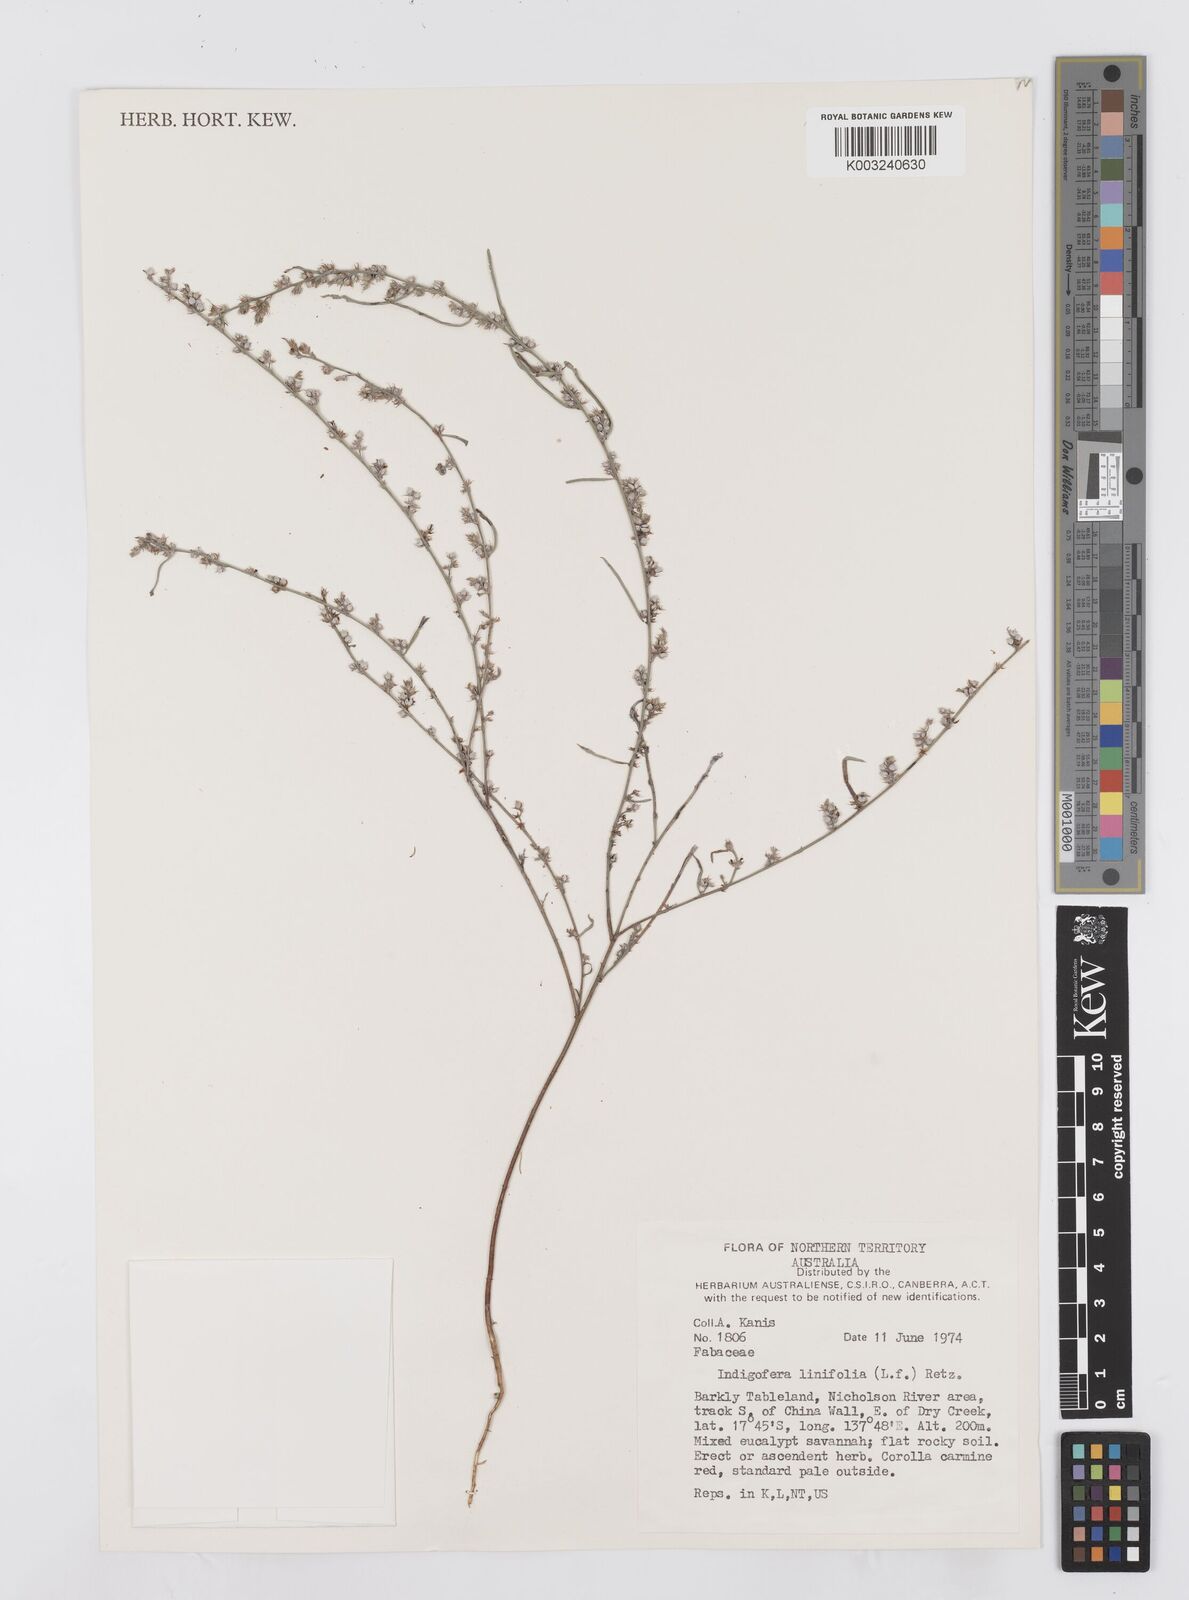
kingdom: Plantae
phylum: Tracheophyta
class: Magnoliopsida
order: Fabales
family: Fabaceae
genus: Indigofera
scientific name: Indigofera linifolia
